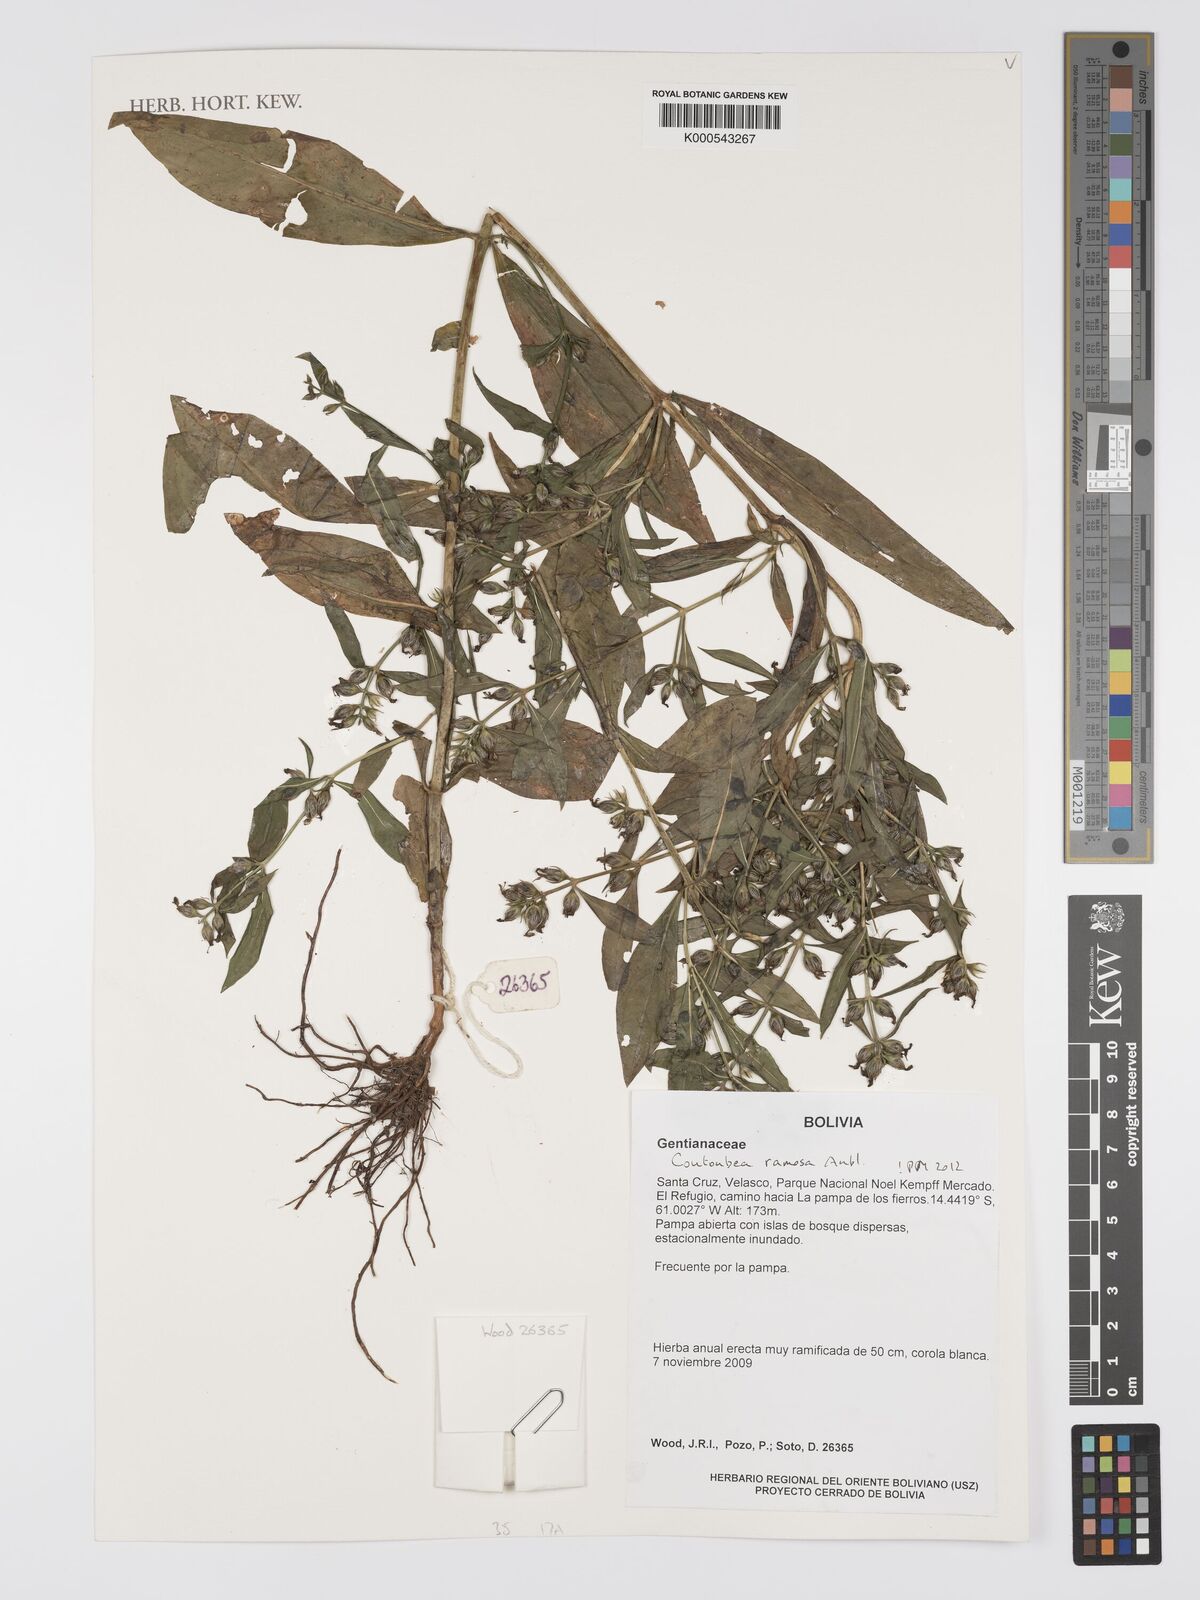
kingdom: Plantae
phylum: Tracheophyta
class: Magnoliopsida
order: Gentianales
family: Gentianaceae
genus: Coutoubea
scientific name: Coutoubea ramosa
